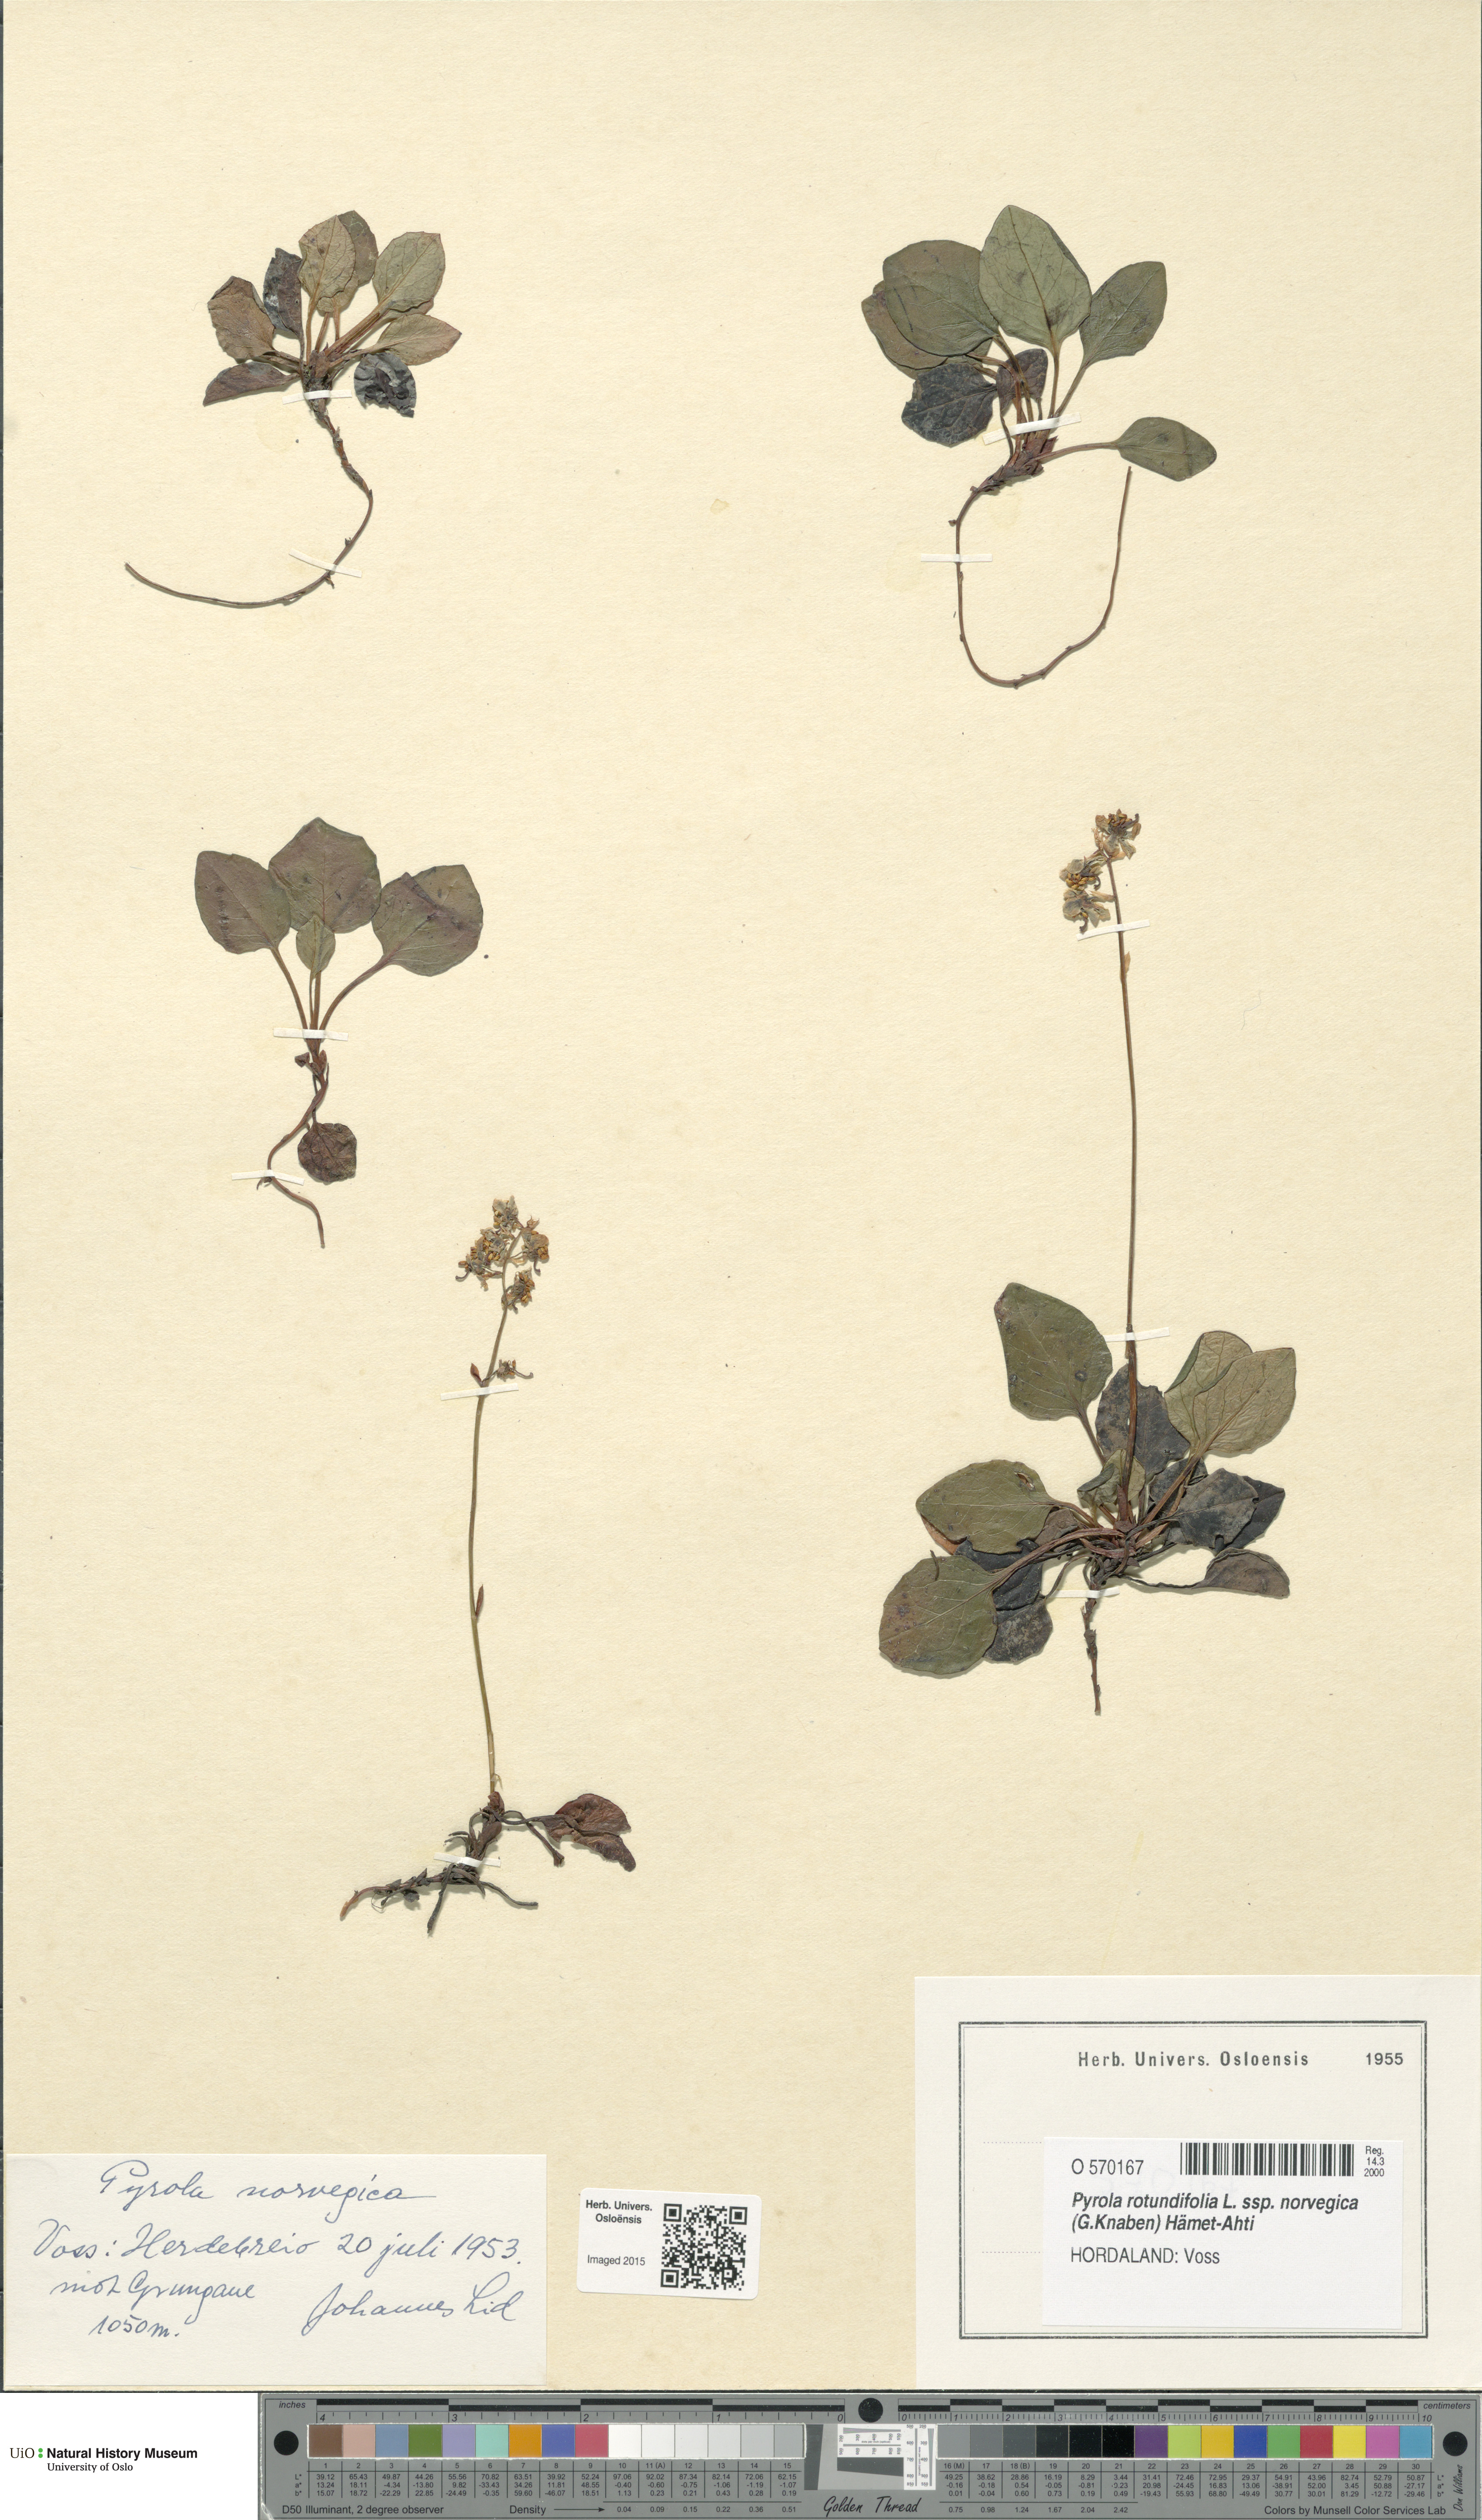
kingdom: Plantae
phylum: Tracheophyta
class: Magnoliopsida
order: Ericales
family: Ericaceae
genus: Pyrola
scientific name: Pyrola rotundifolia
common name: Round-leaved wintergreen
